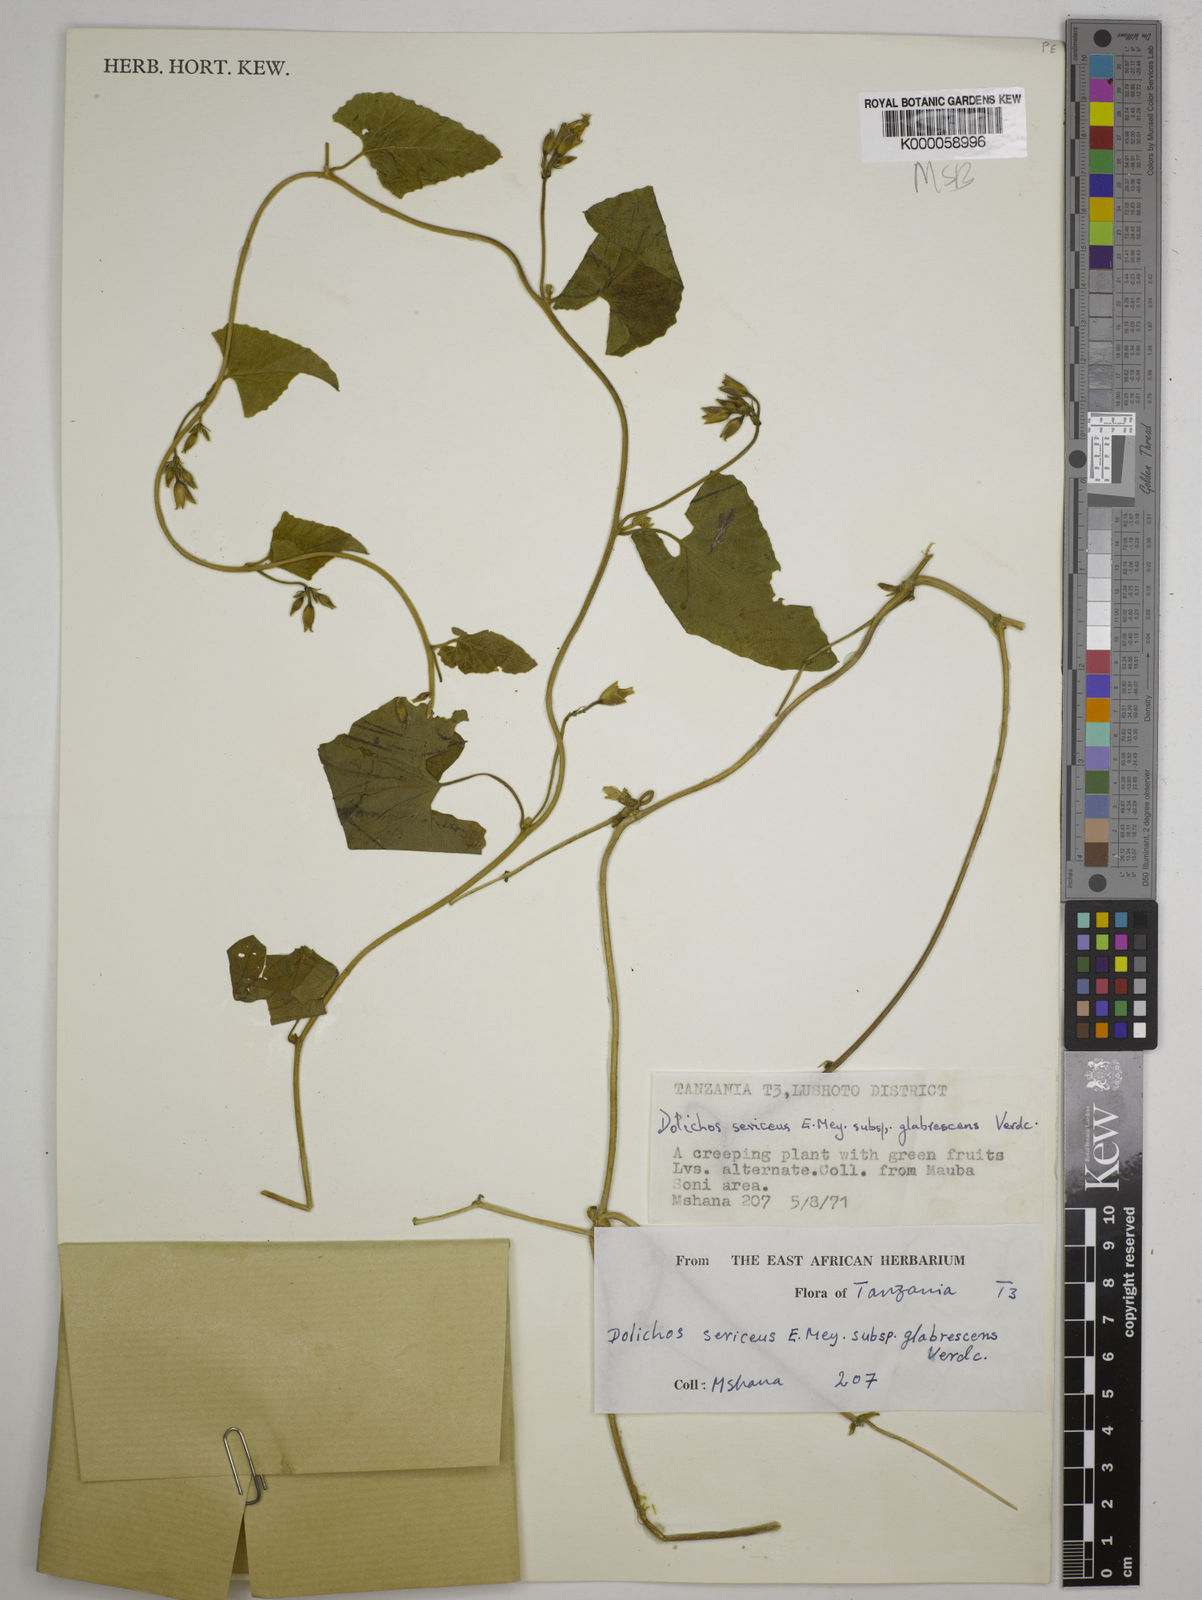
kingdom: Plantae
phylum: Tracheophyta
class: Magnoliopsida
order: Fabales
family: Fabaceae
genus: Dolichos
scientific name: Dolichos sericeus
